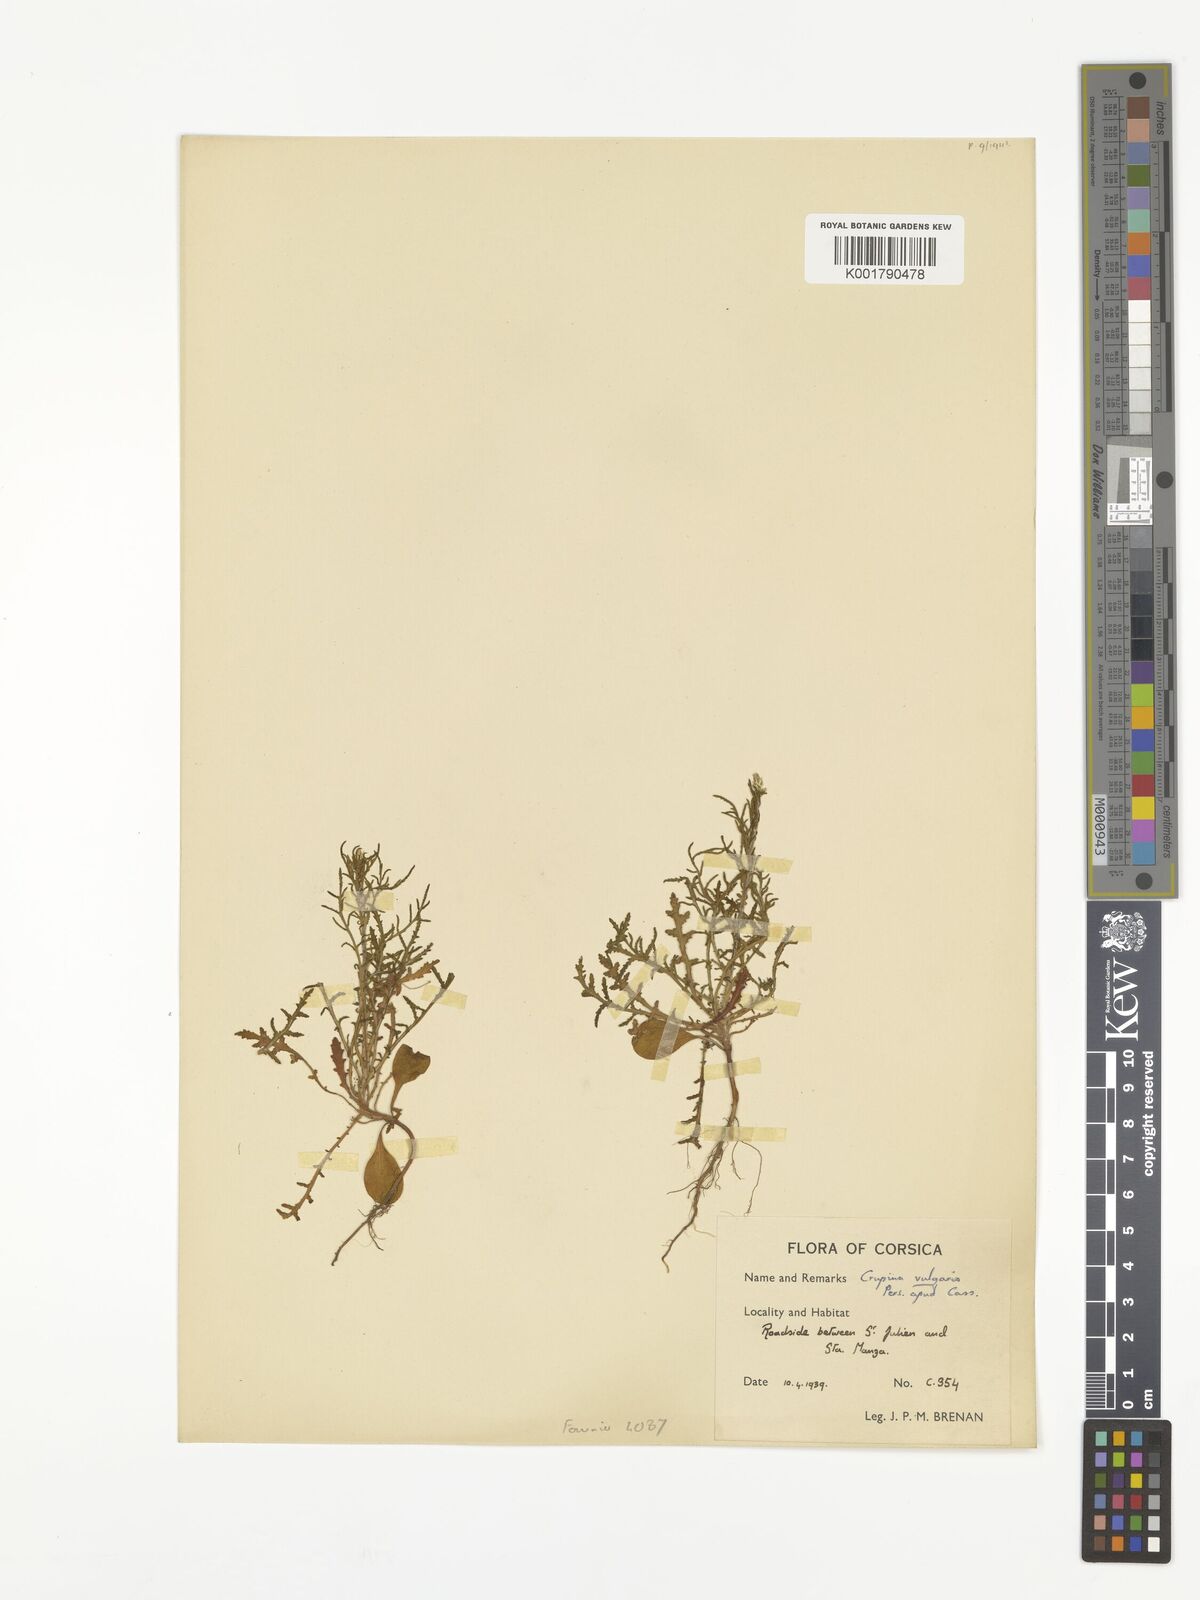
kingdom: Plantae
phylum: Tracheophyta
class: Magnoliopsida
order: Asterales
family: Asteraceae
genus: Crupina
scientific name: Crupina vulgaris
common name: Common crupina
